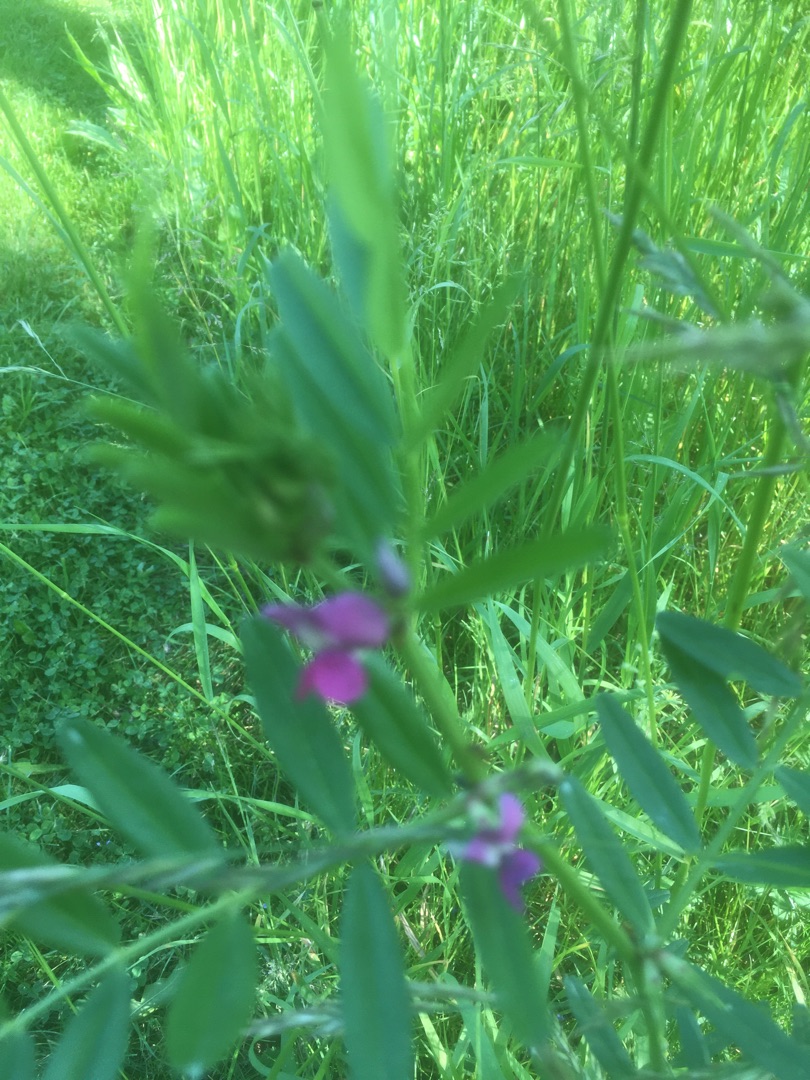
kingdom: Plantae
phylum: Tracheophyta
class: Magnoliopsida
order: Fabales
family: Fabaceae
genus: Vicia
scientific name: Vicia sativa
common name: Foder-vikke
